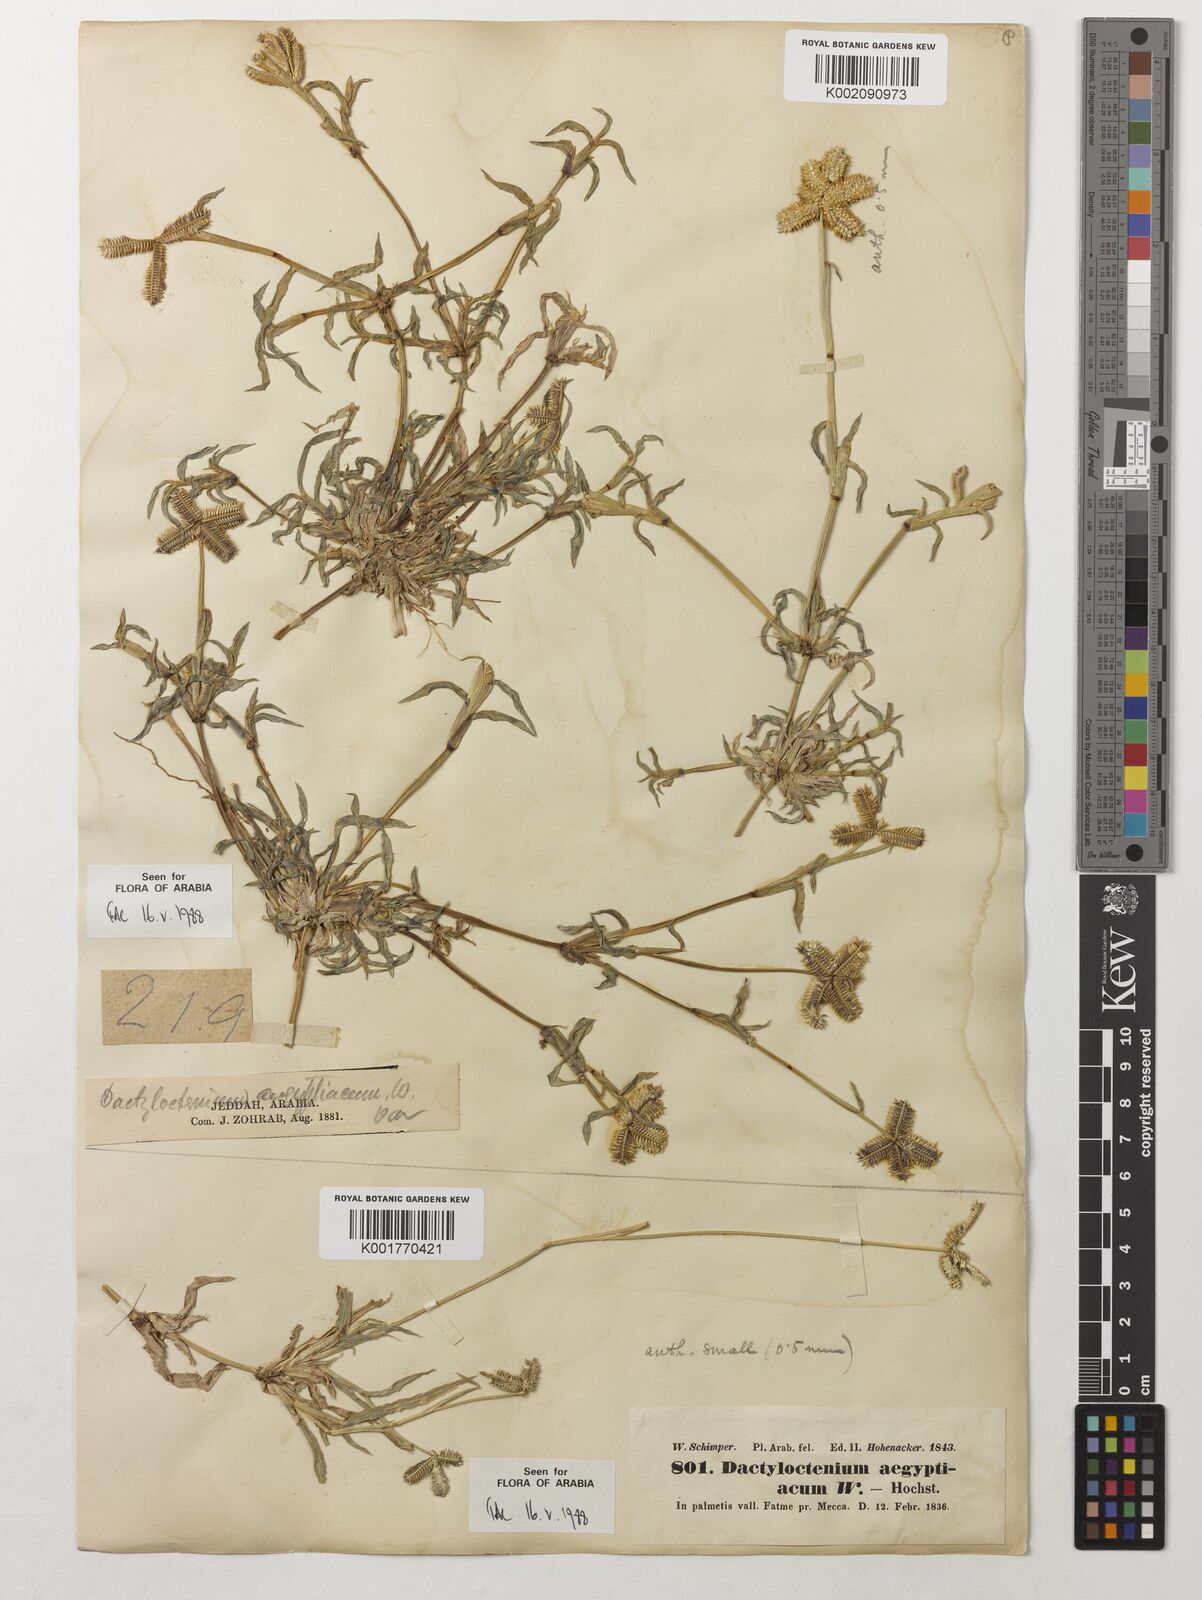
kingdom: Plantae
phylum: Tracheophyta
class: Liliopsida
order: Poales
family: Poaceae
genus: Dactyloctenium
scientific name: Dactyloctenium aegyptium
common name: Egyptian grass
